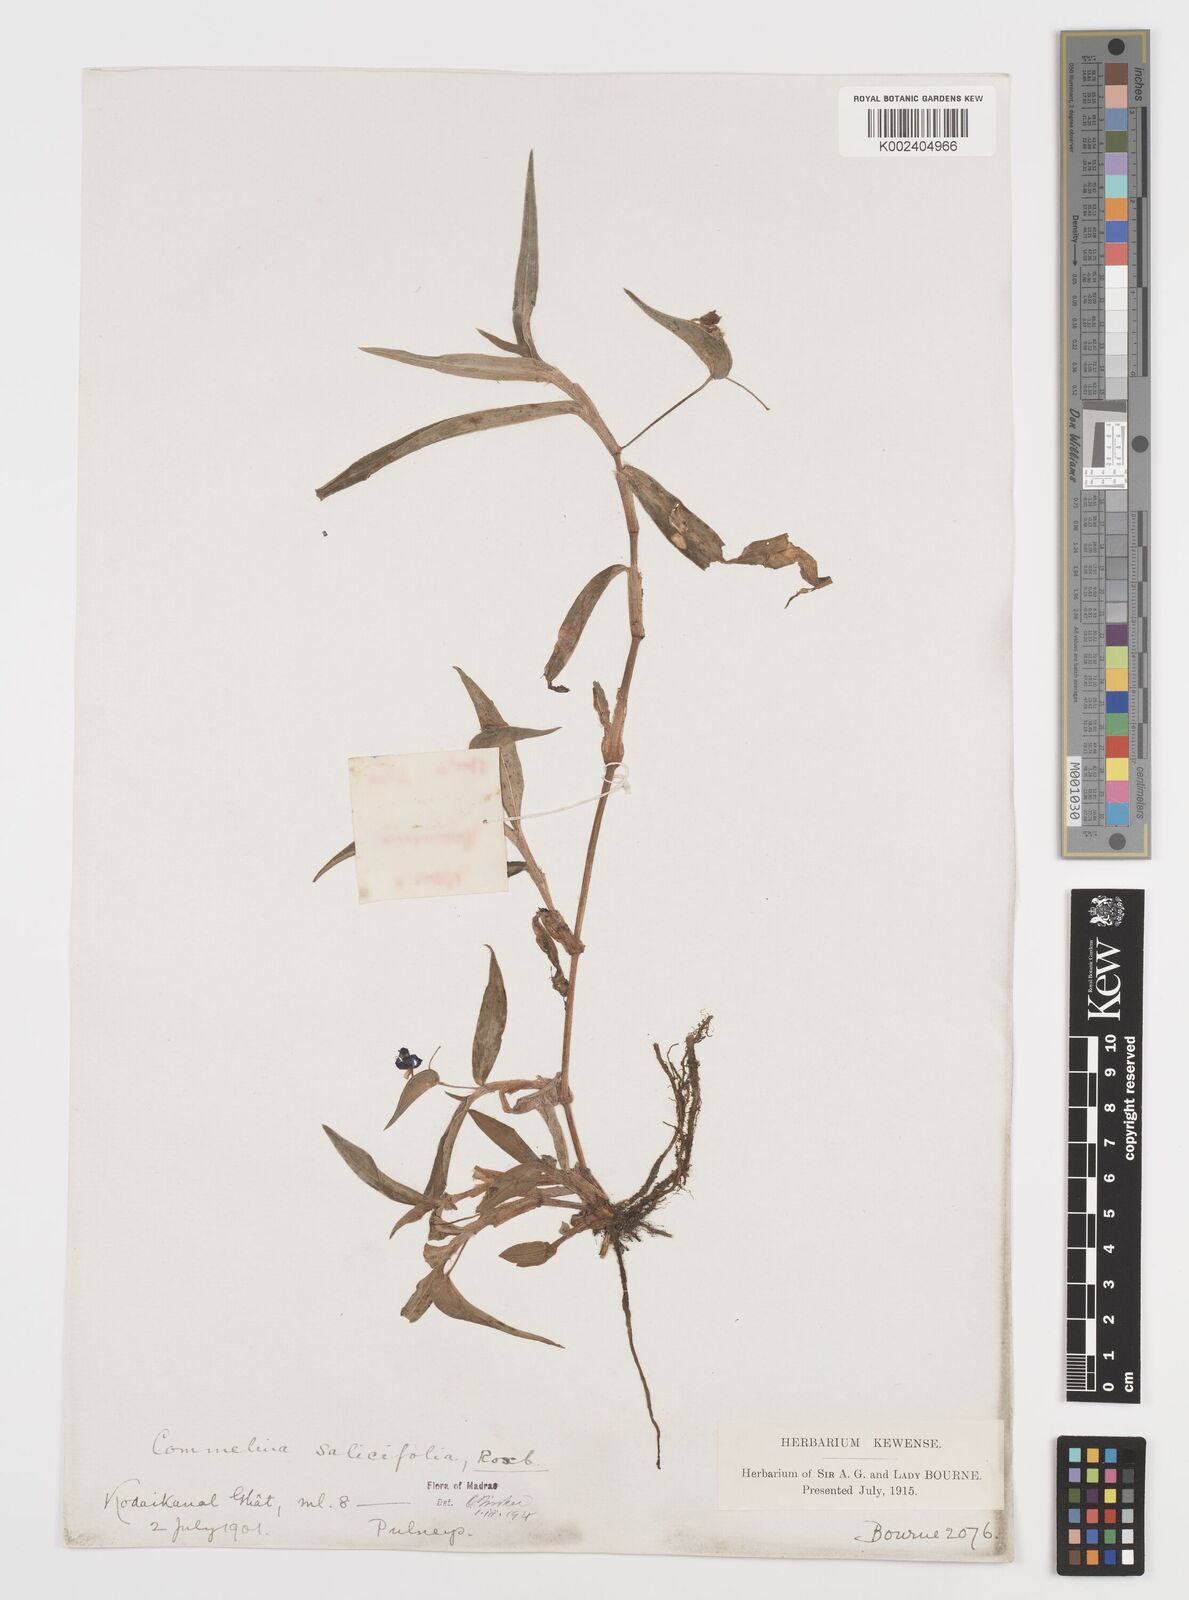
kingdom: Plantae
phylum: Tracheophyta
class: Liliopsida
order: Commelinales
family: Commelinaceae
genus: Commelina
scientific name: Commelina undulata
